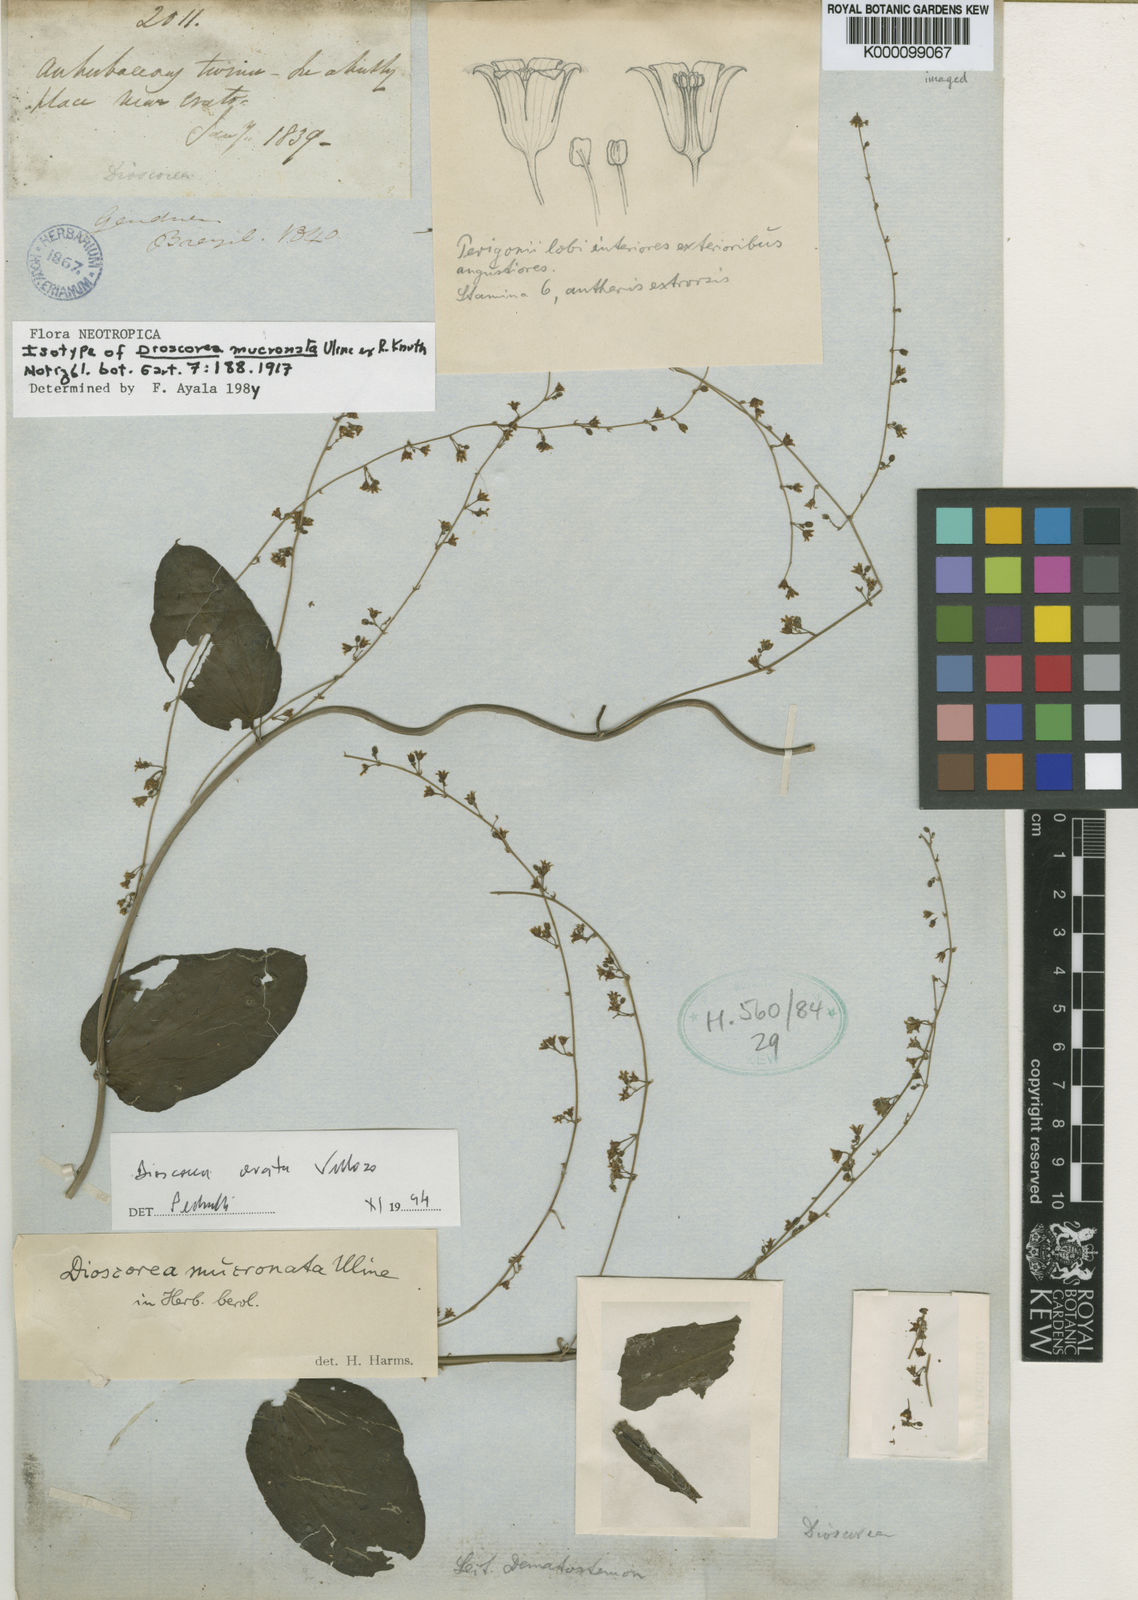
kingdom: Plantae
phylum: Tracheophyta
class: Liliopsida
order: Dioscoreales
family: Dioscoreaceae
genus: Dioscorea
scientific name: Dioscorea mucronata
